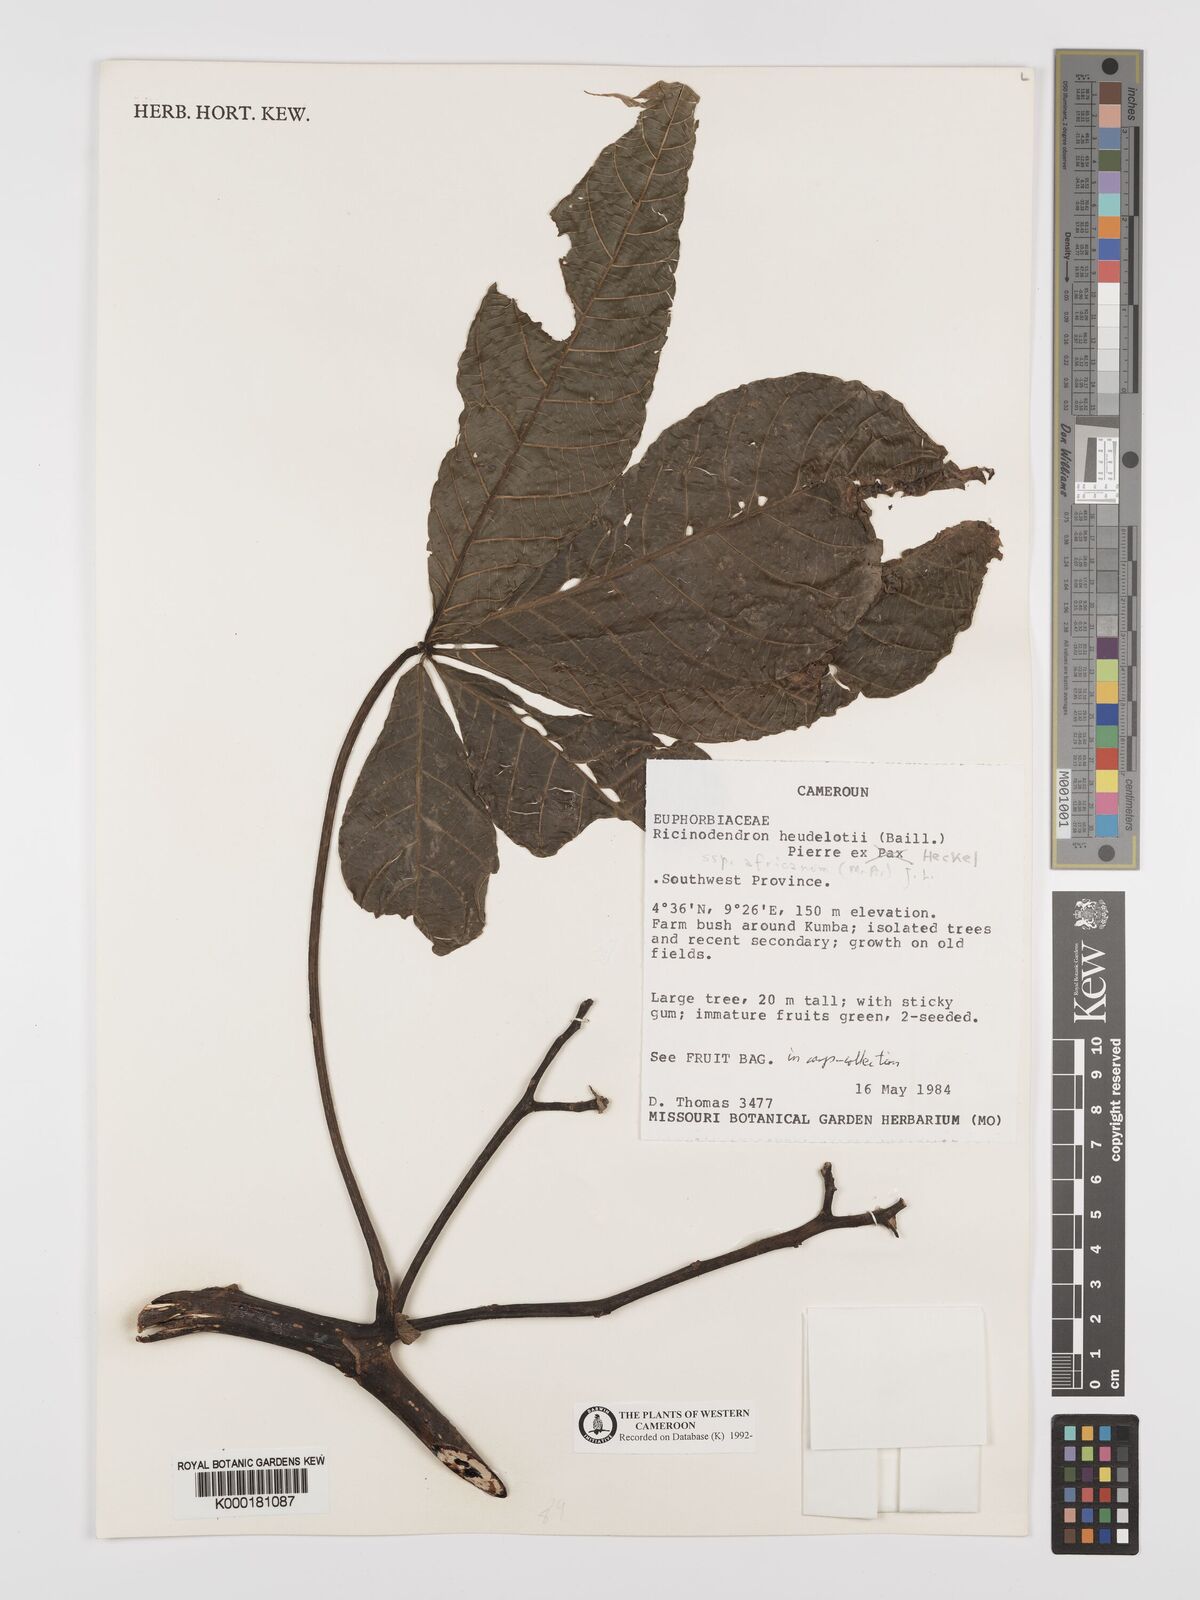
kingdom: Plantae
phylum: Tracheophyta
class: Magnoliopsida
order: Malpighiales
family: Euphorbiaceae
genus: Ricinodendron
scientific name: Ricinodendron heudelotii
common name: African nut-tree
